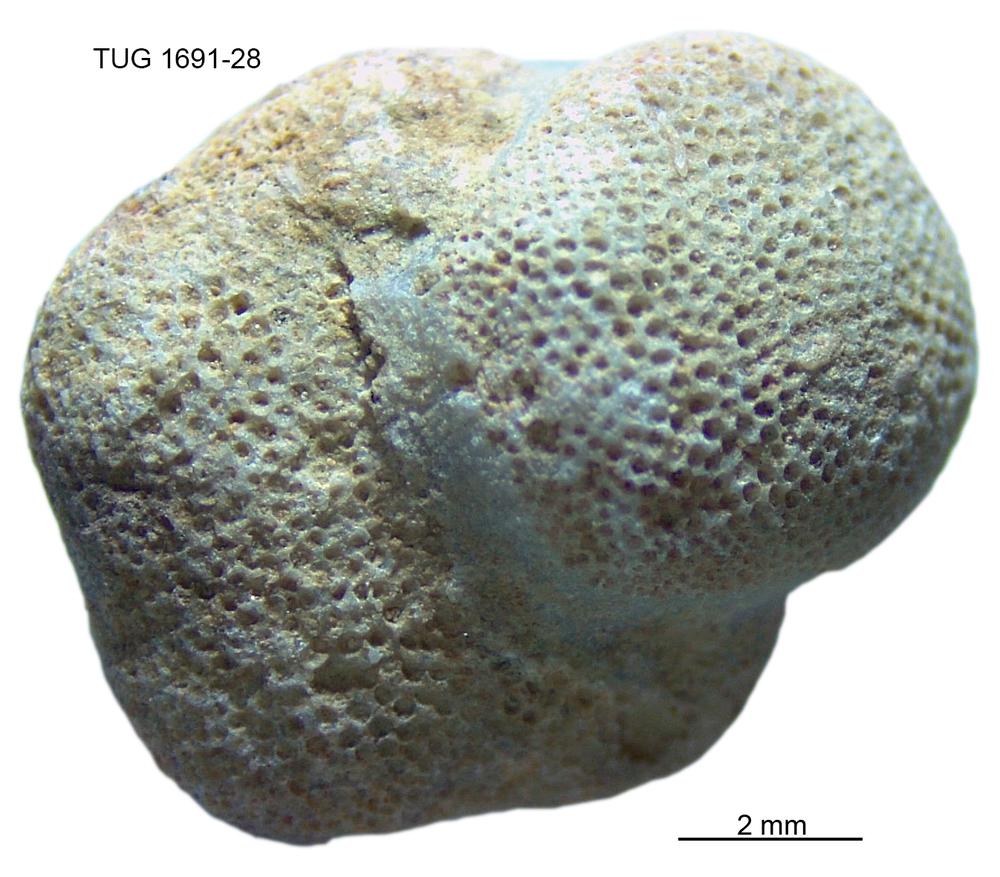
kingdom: Animalia
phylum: Bryozoa
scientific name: Bryozoa
